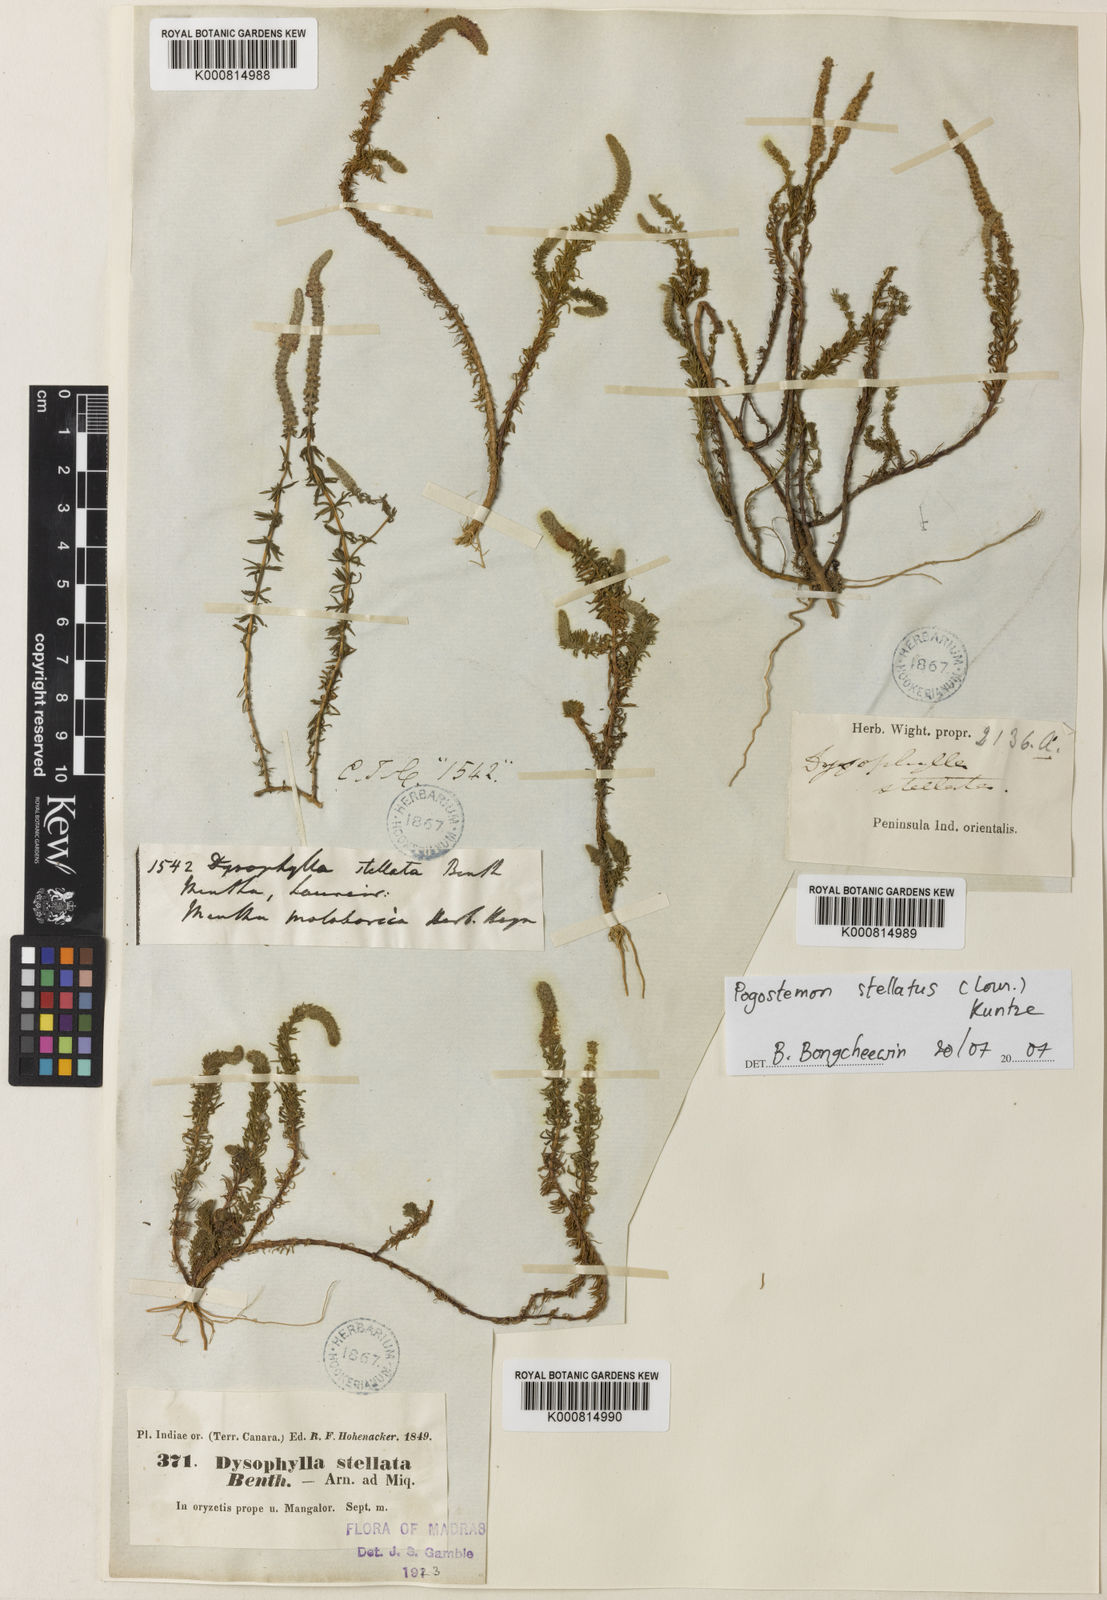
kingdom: Plantae
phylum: Tracheophyta
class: Magnoliopsida
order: Lamiales
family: Lamiaceae
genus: Pogostemon
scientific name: Pogostemon stellatus
